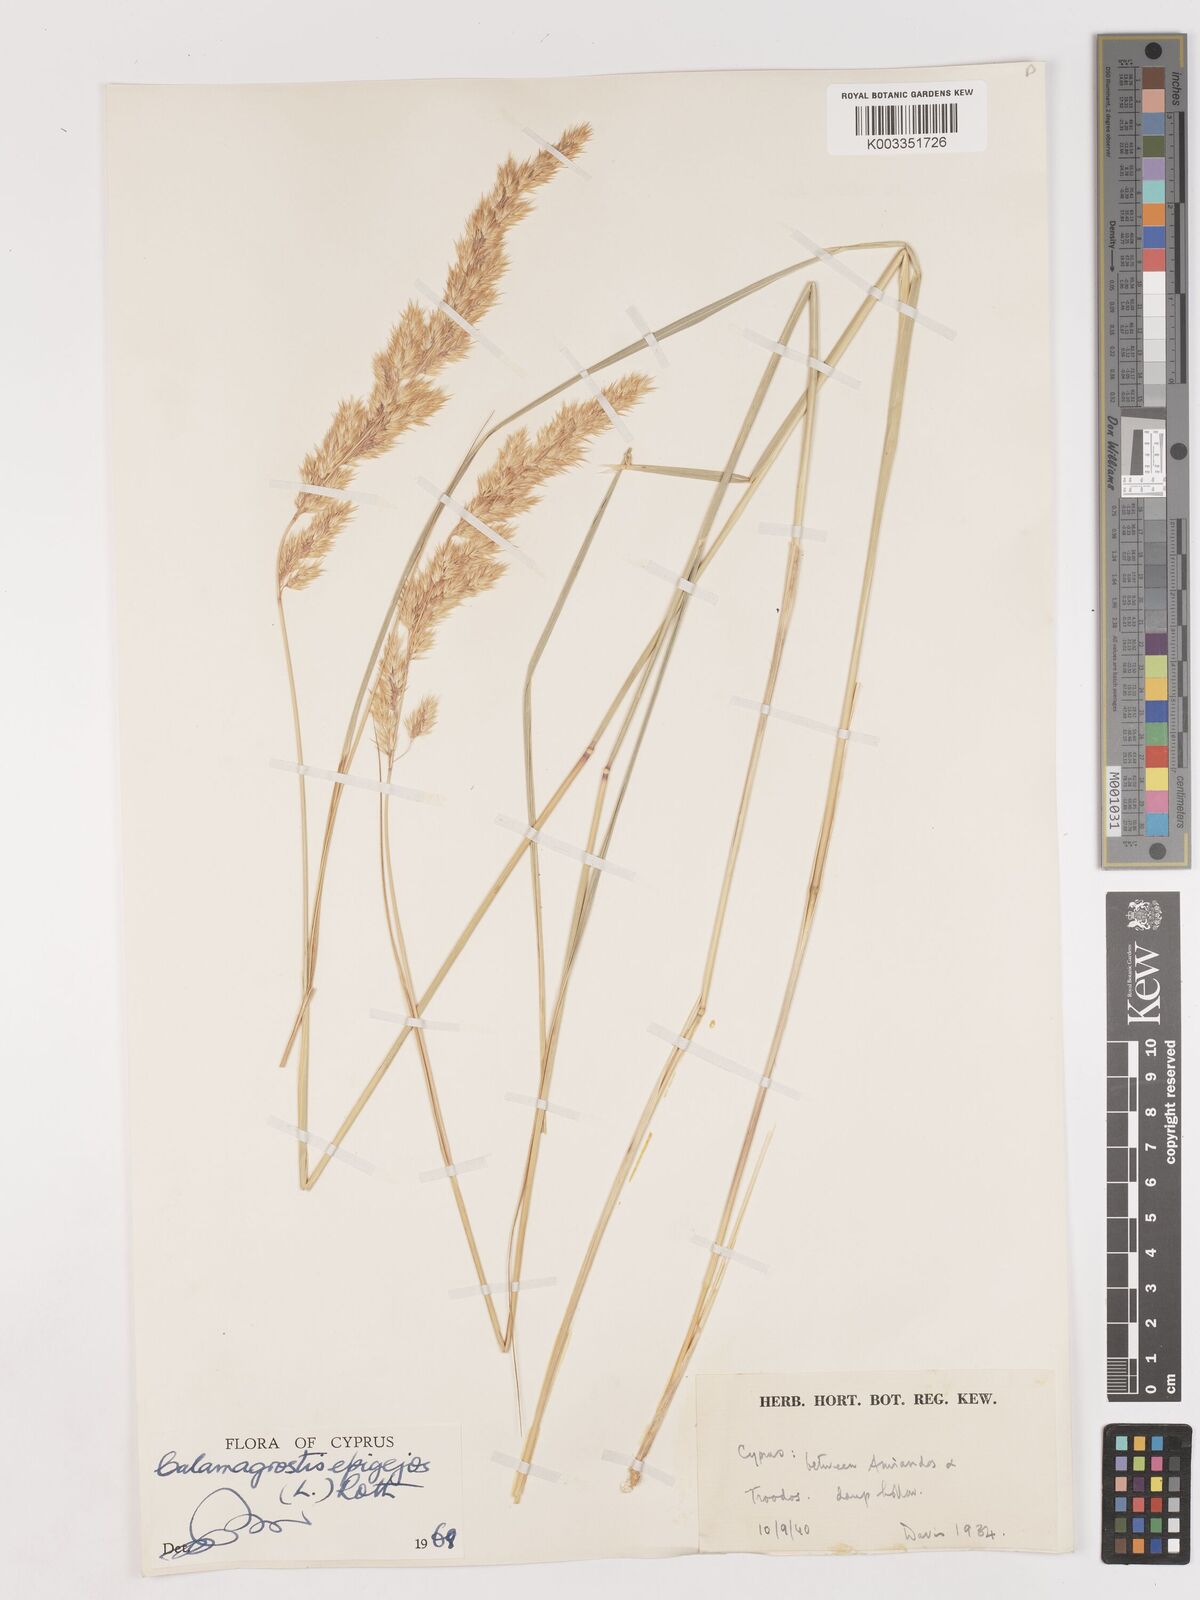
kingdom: Plantae
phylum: Tracheophyta
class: Liliopsida
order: Poales
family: Poaceae
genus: Calamagrostis
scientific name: Calamagrostis epigejos
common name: Wood small-reed
